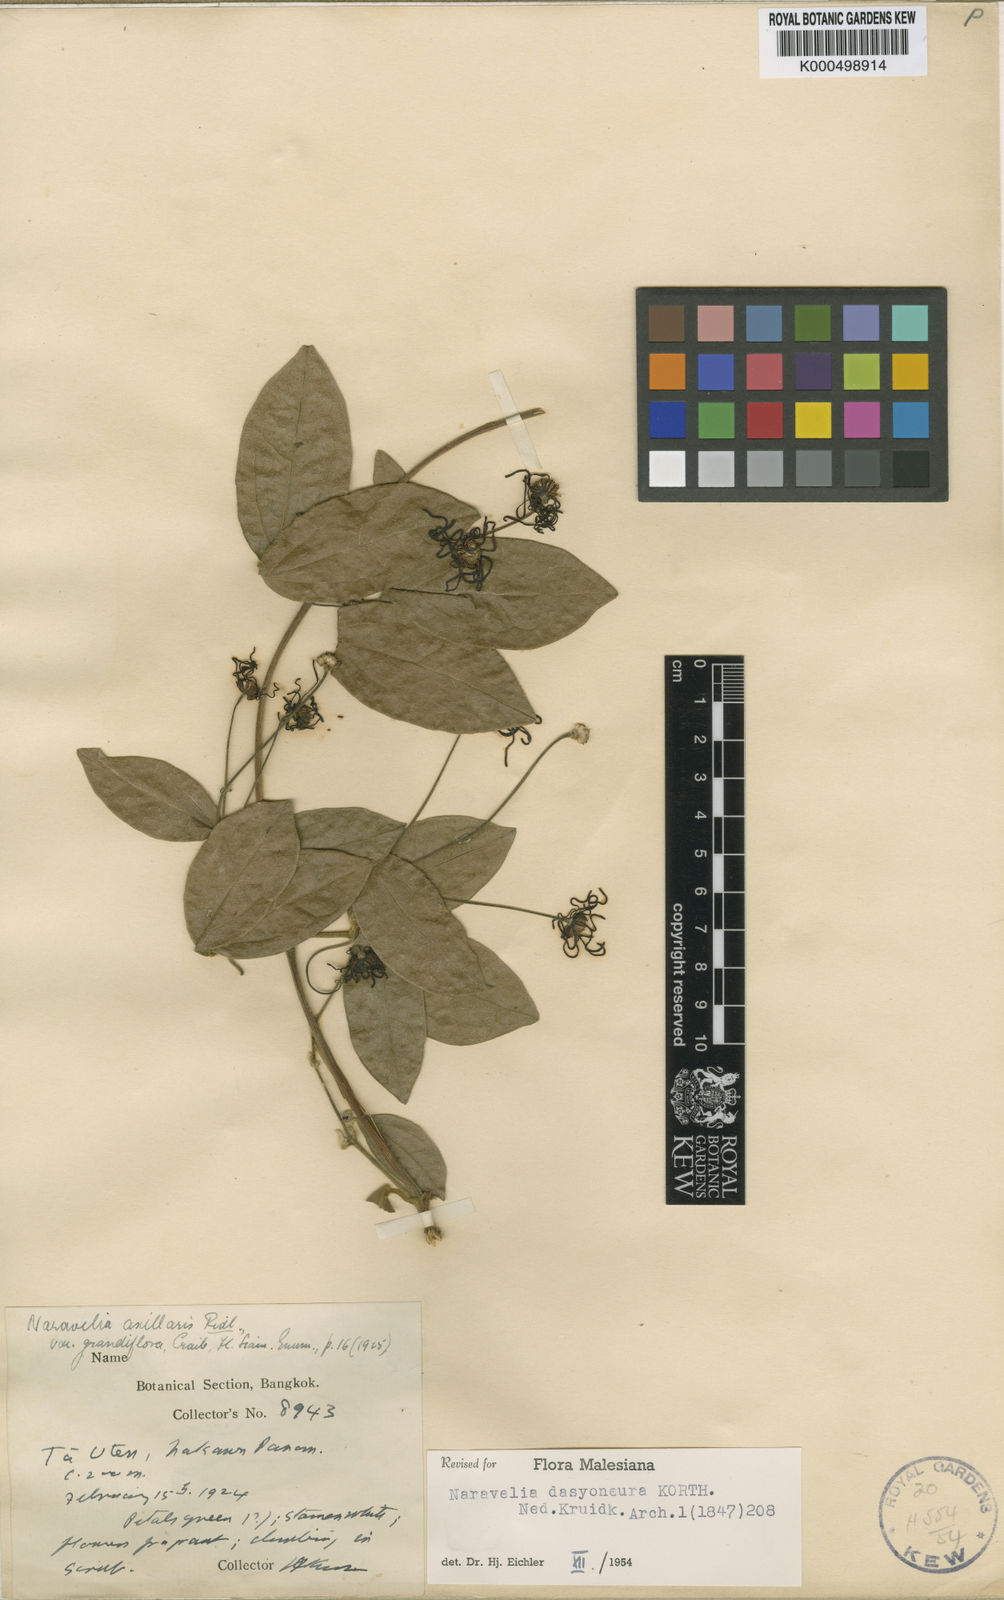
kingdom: Plantae
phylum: Tracheophyta
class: Magnoliopsida
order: Ranunculales
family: Ranunculaceae
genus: Clematis
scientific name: Clematis dasyoneura
